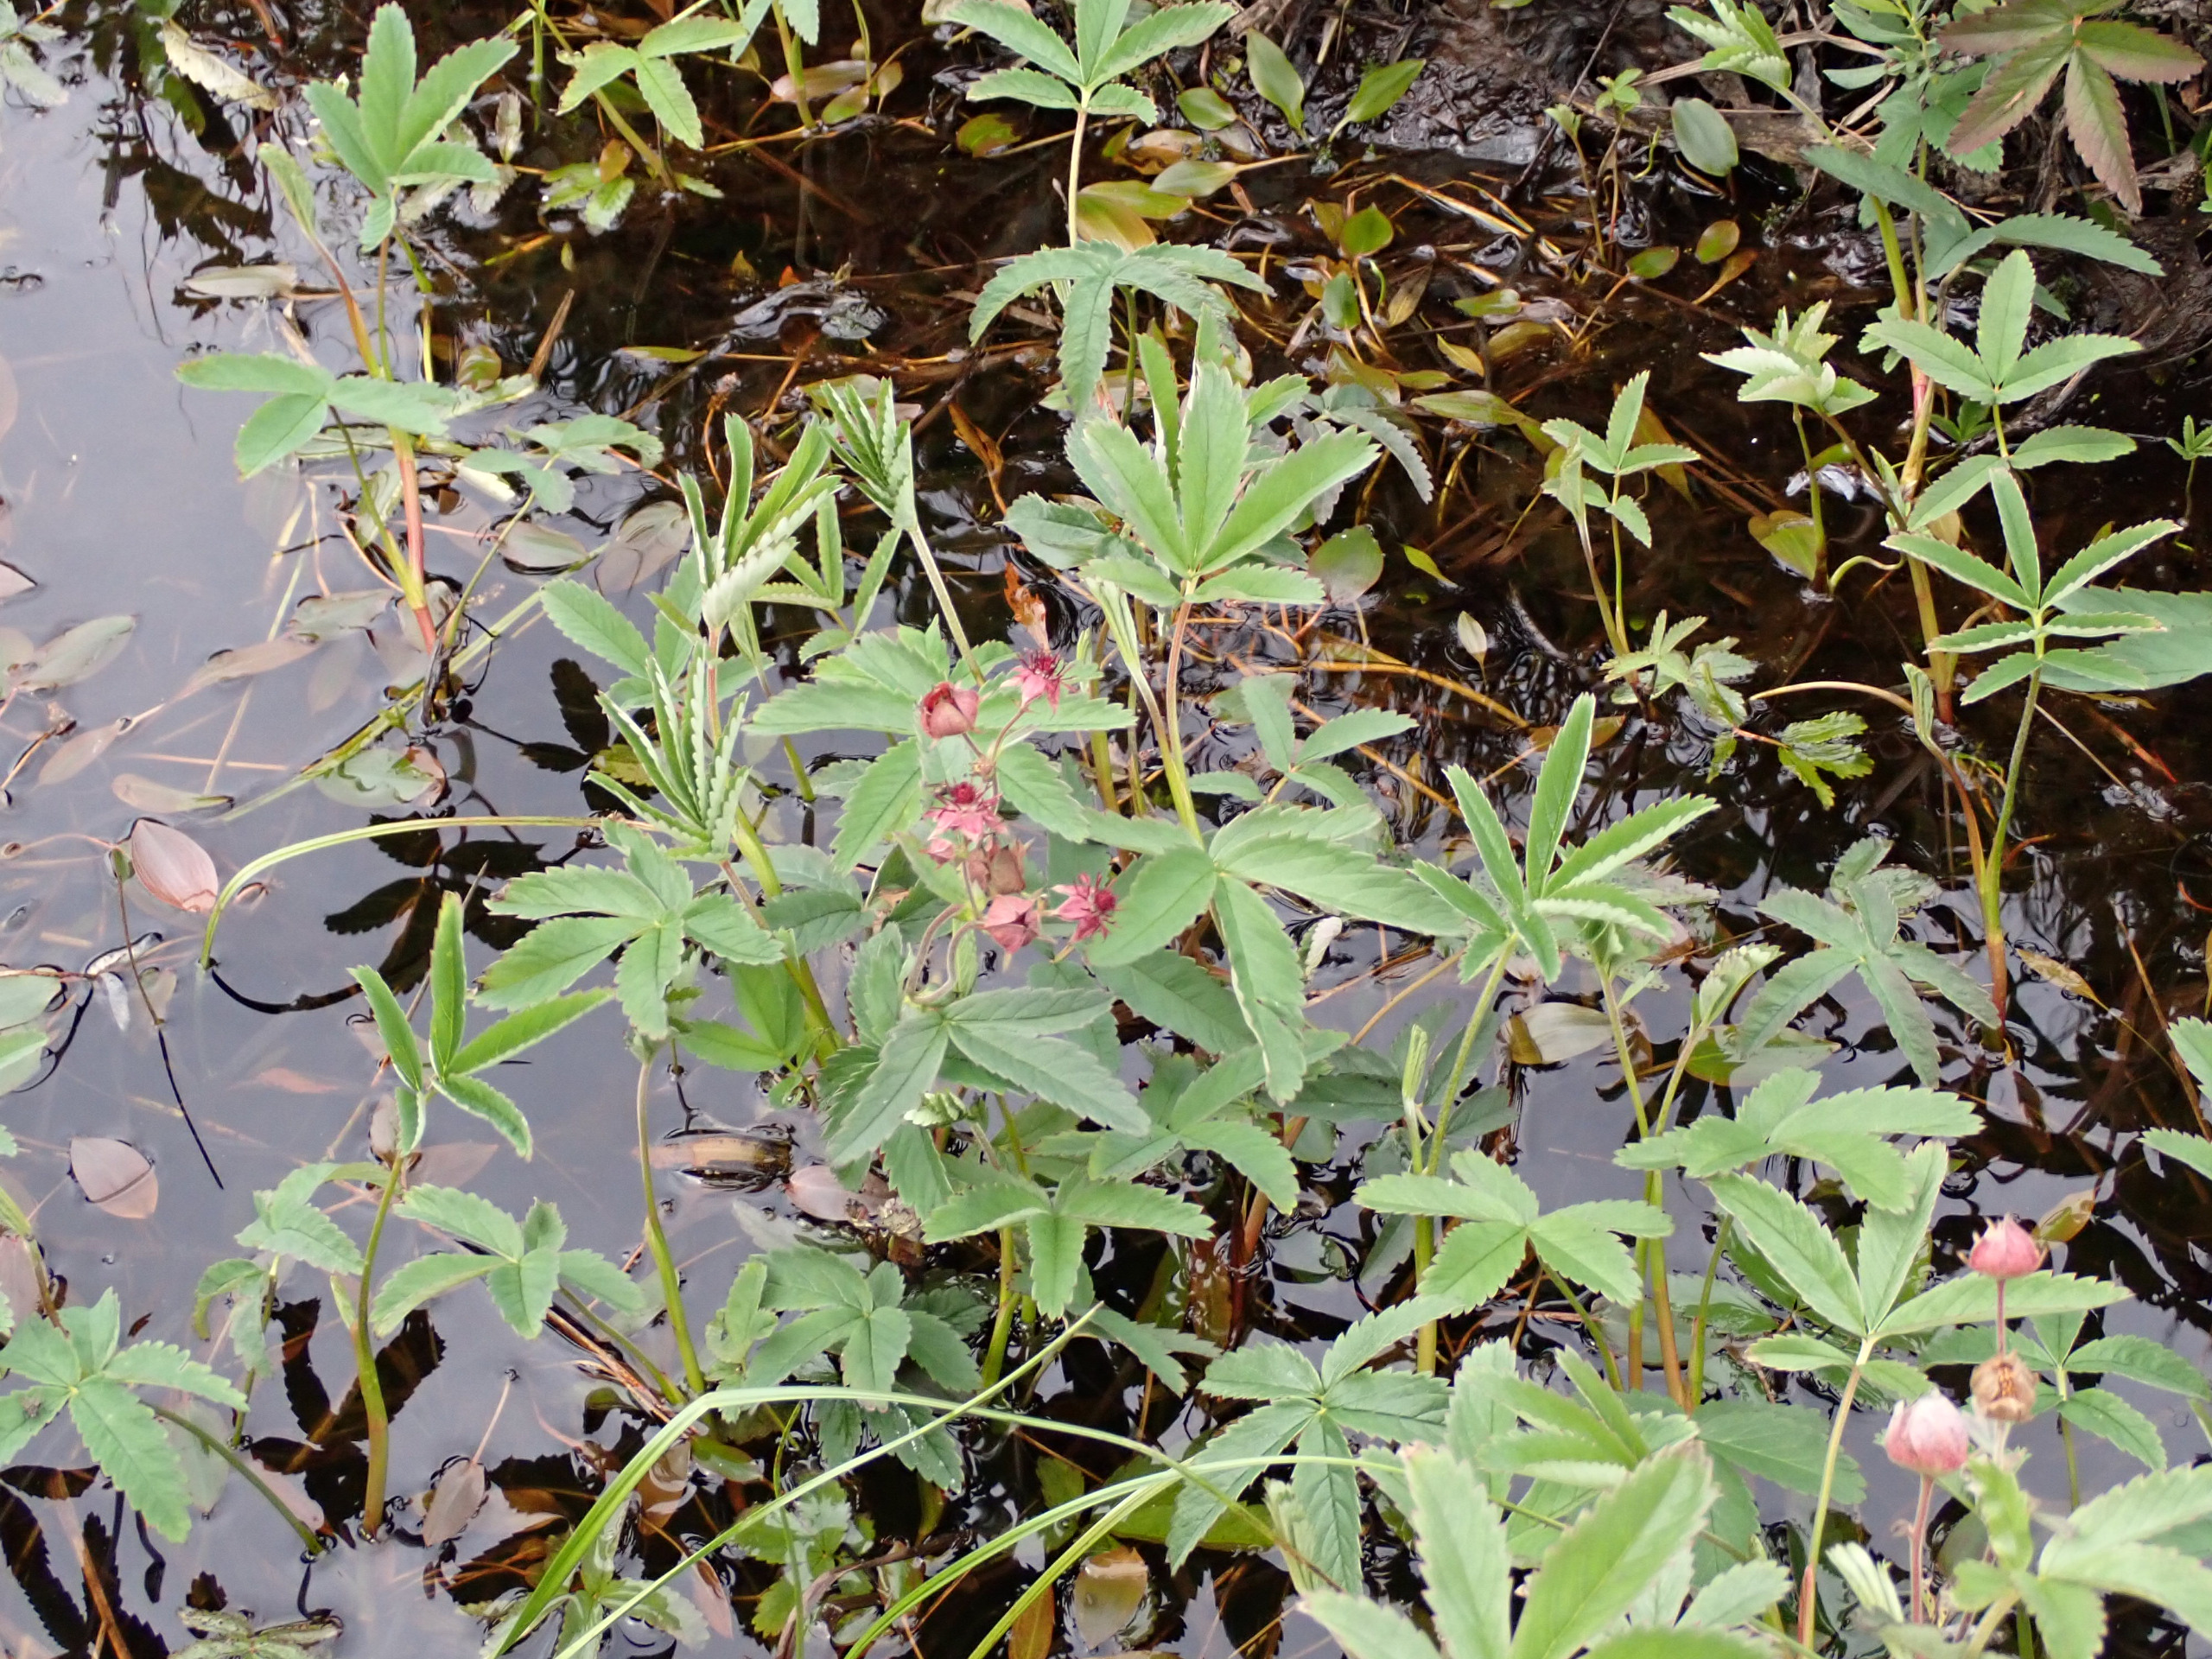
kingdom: Plantae
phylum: Tracheophyta
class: Magnoliopsida
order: Rosales
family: Rosaceae
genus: Comarum
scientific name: Comarum palustre
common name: Kragefod
